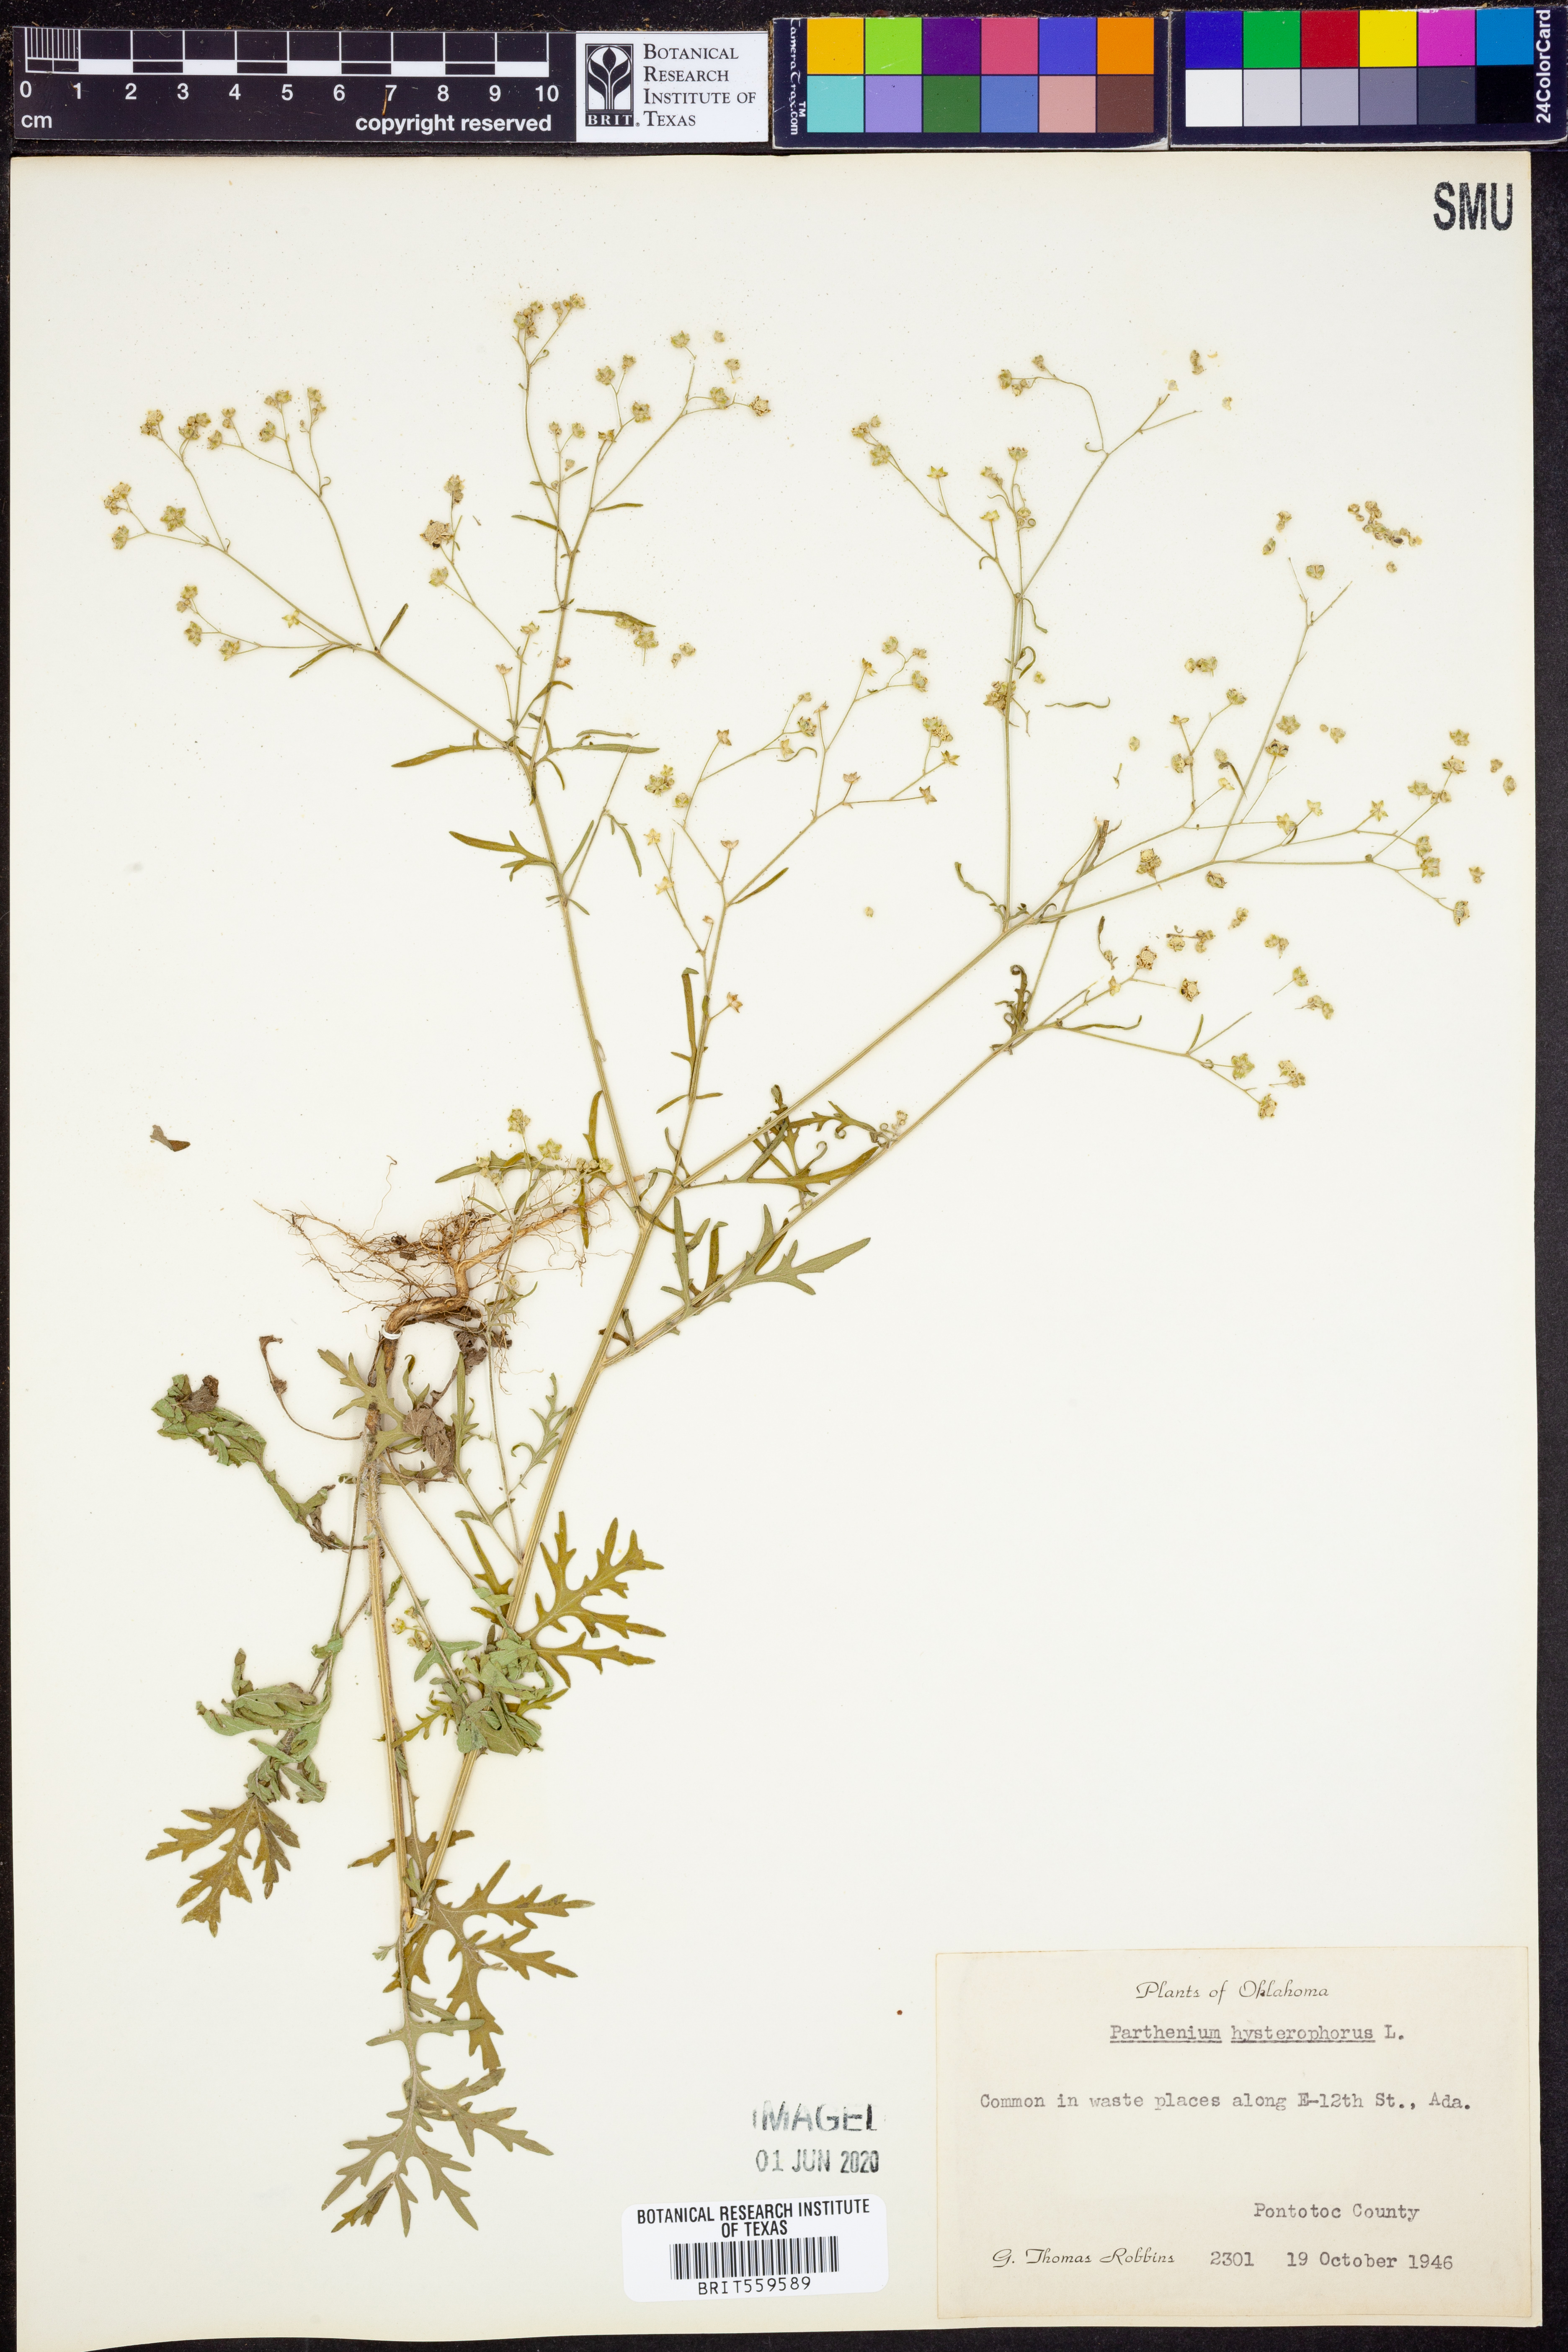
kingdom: Plantae
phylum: Tracheophyta
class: Magnoliopsida
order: Asterales
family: Asteraceae
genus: Parthenium
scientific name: Parthenium hysterophorus
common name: Santa maria feverfew
